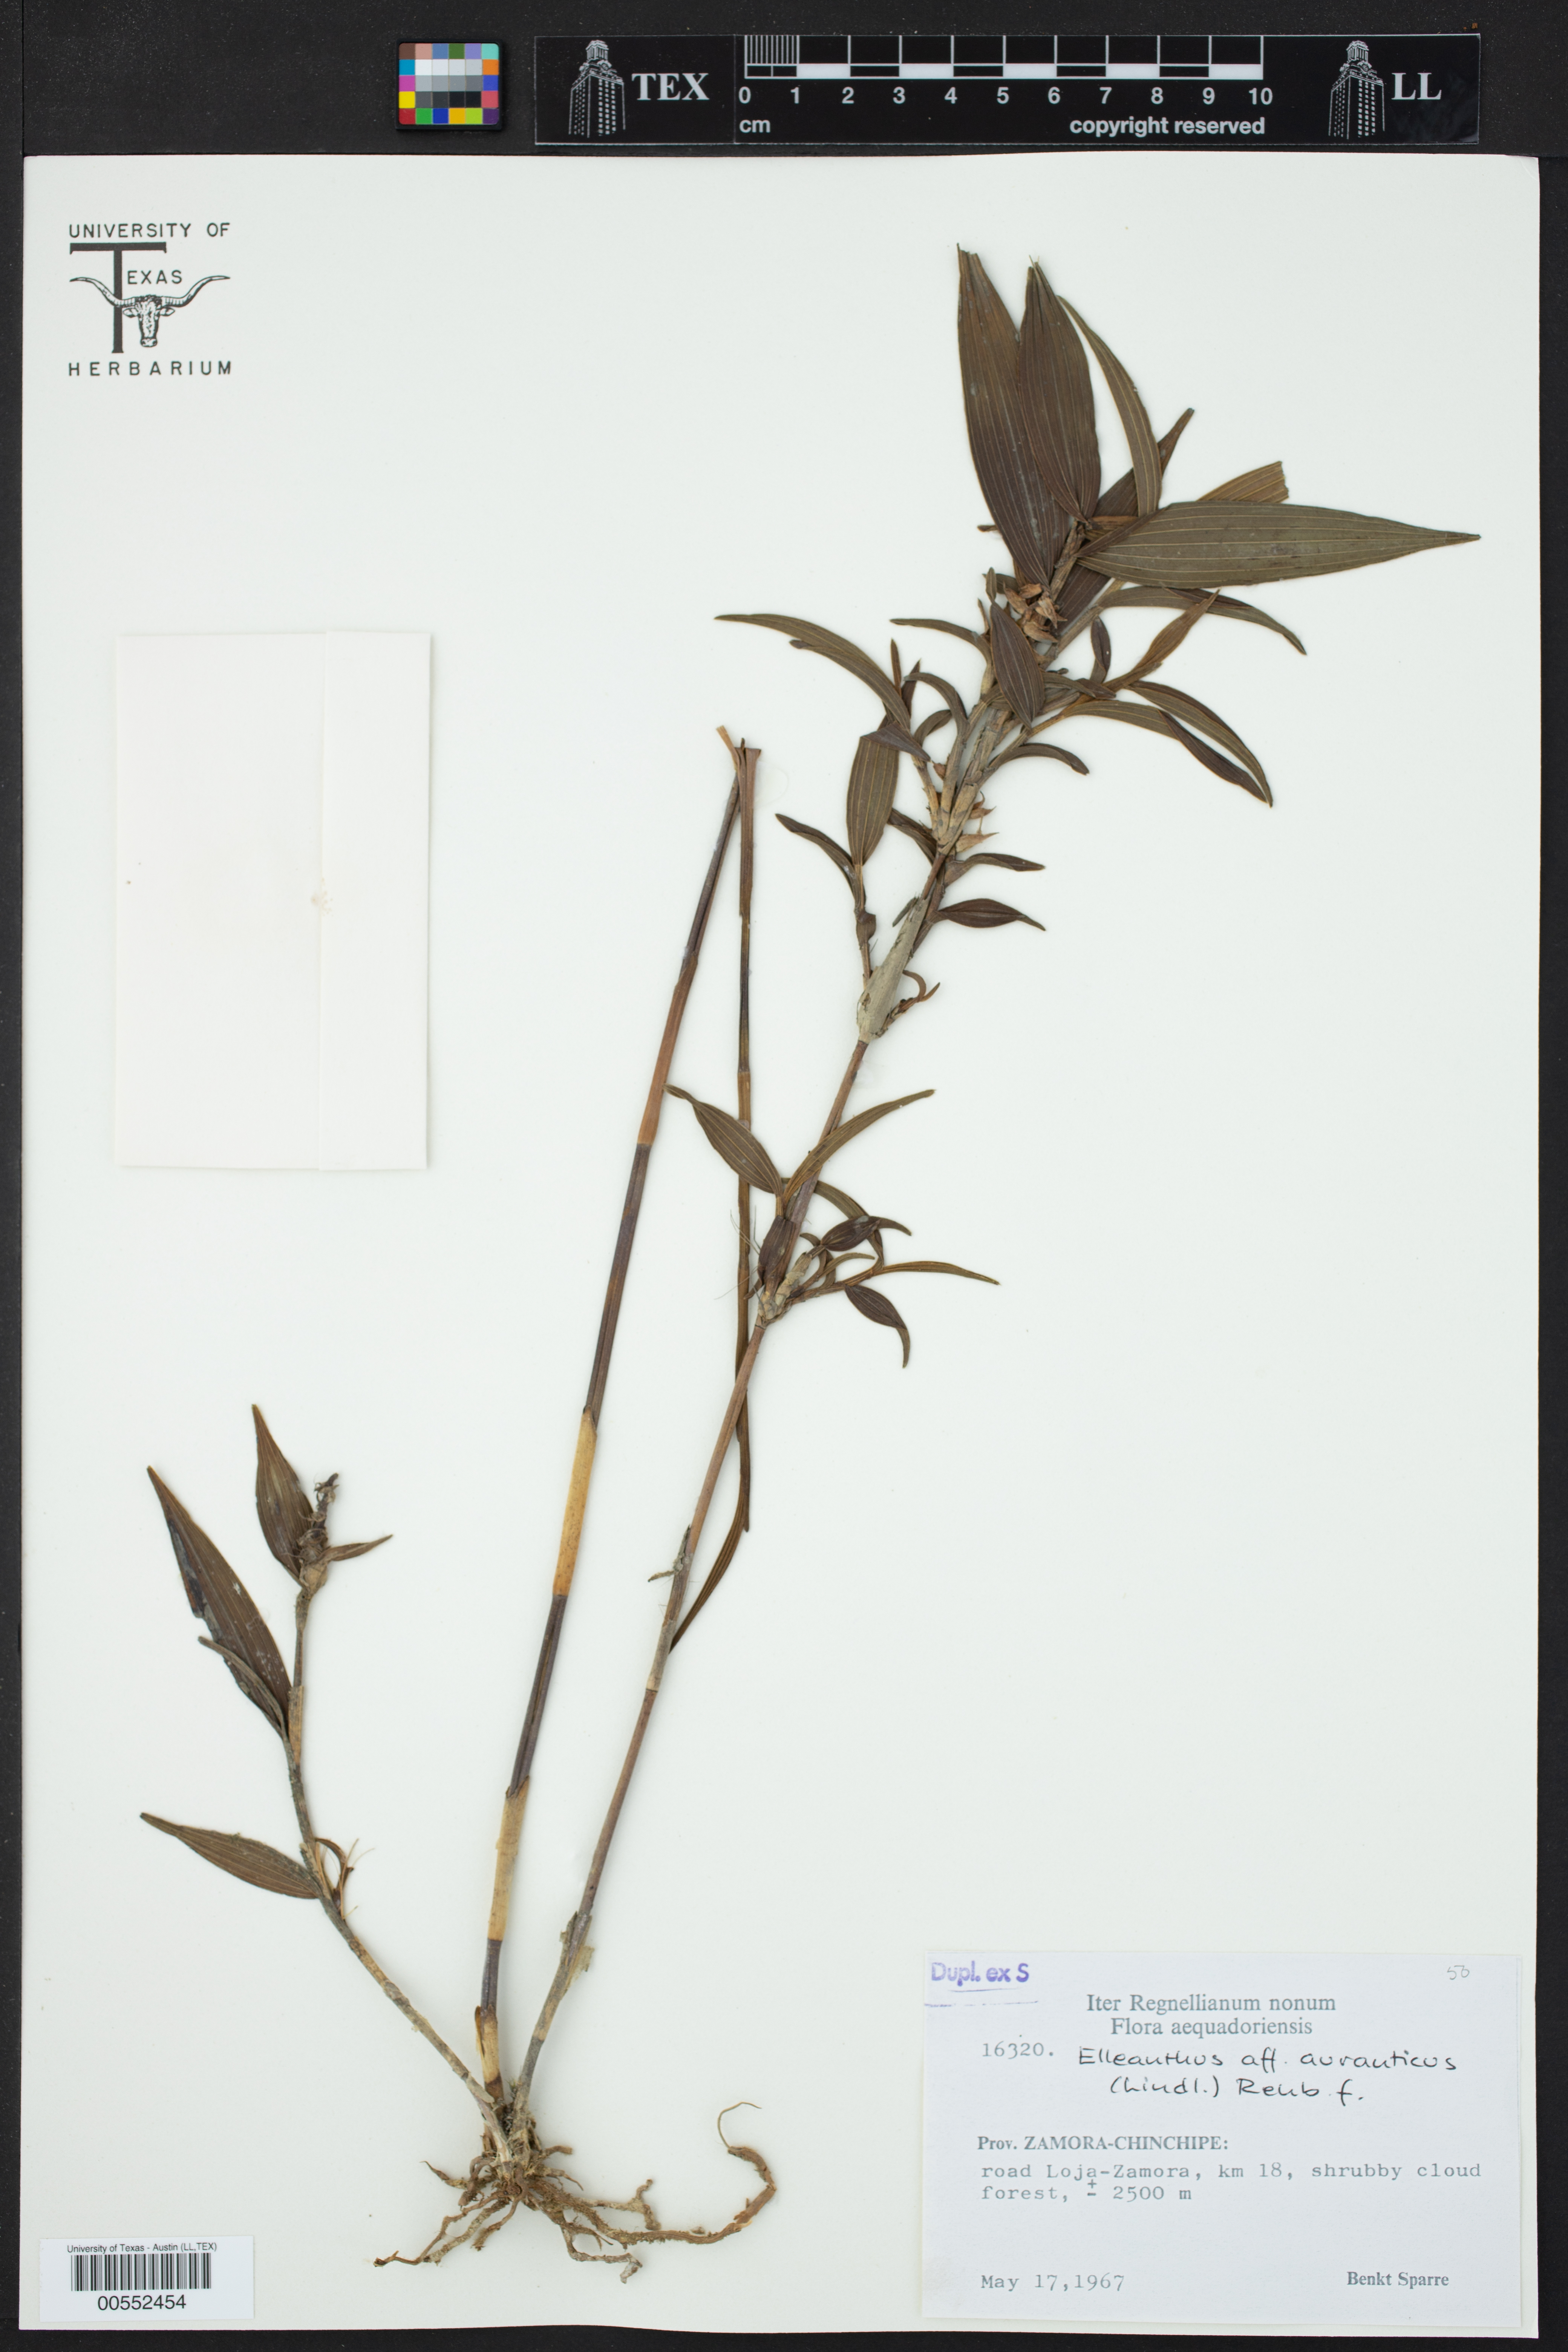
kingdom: Plantae
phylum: Tracheophyta
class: Liliopsida
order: Asparagales
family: Orchidaceae
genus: Elleanthus
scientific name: Elleanthus aurantiacus
